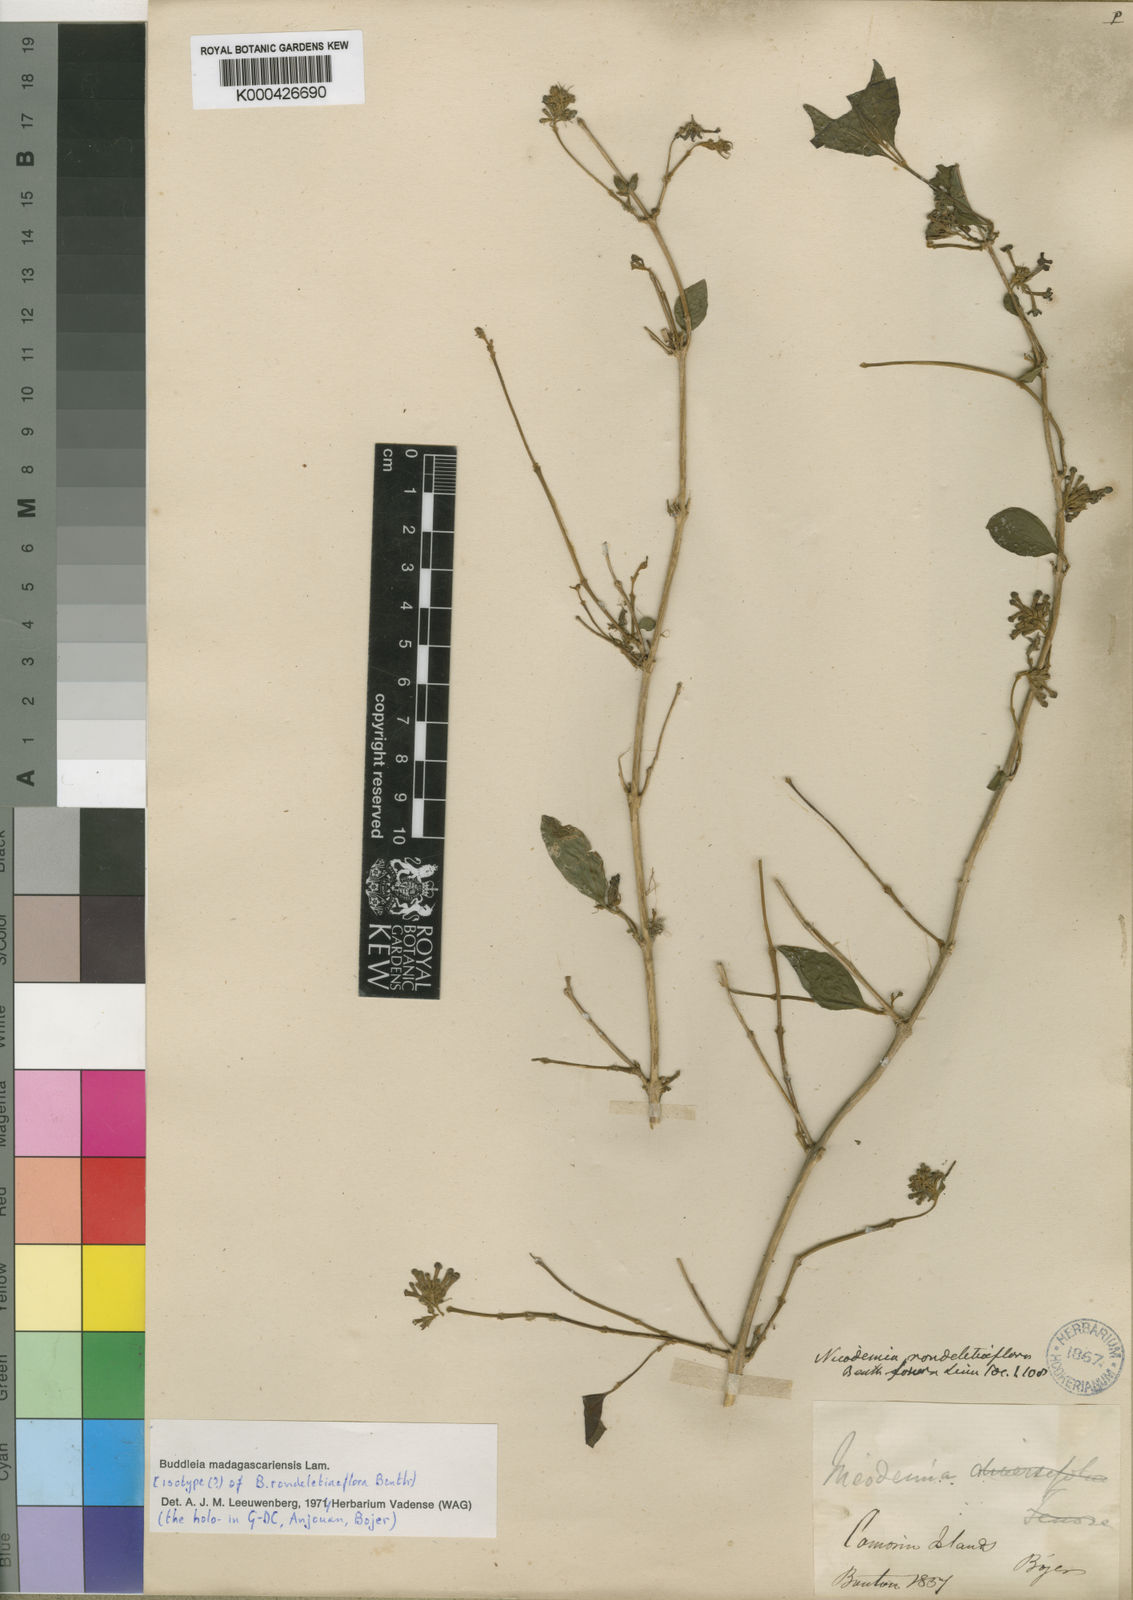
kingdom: Plantae
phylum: Tracheophyta
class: Magnoliopsida
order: Lamiales
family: Scrophulariaceae
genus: Buddleja
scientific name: Buddleja indica
